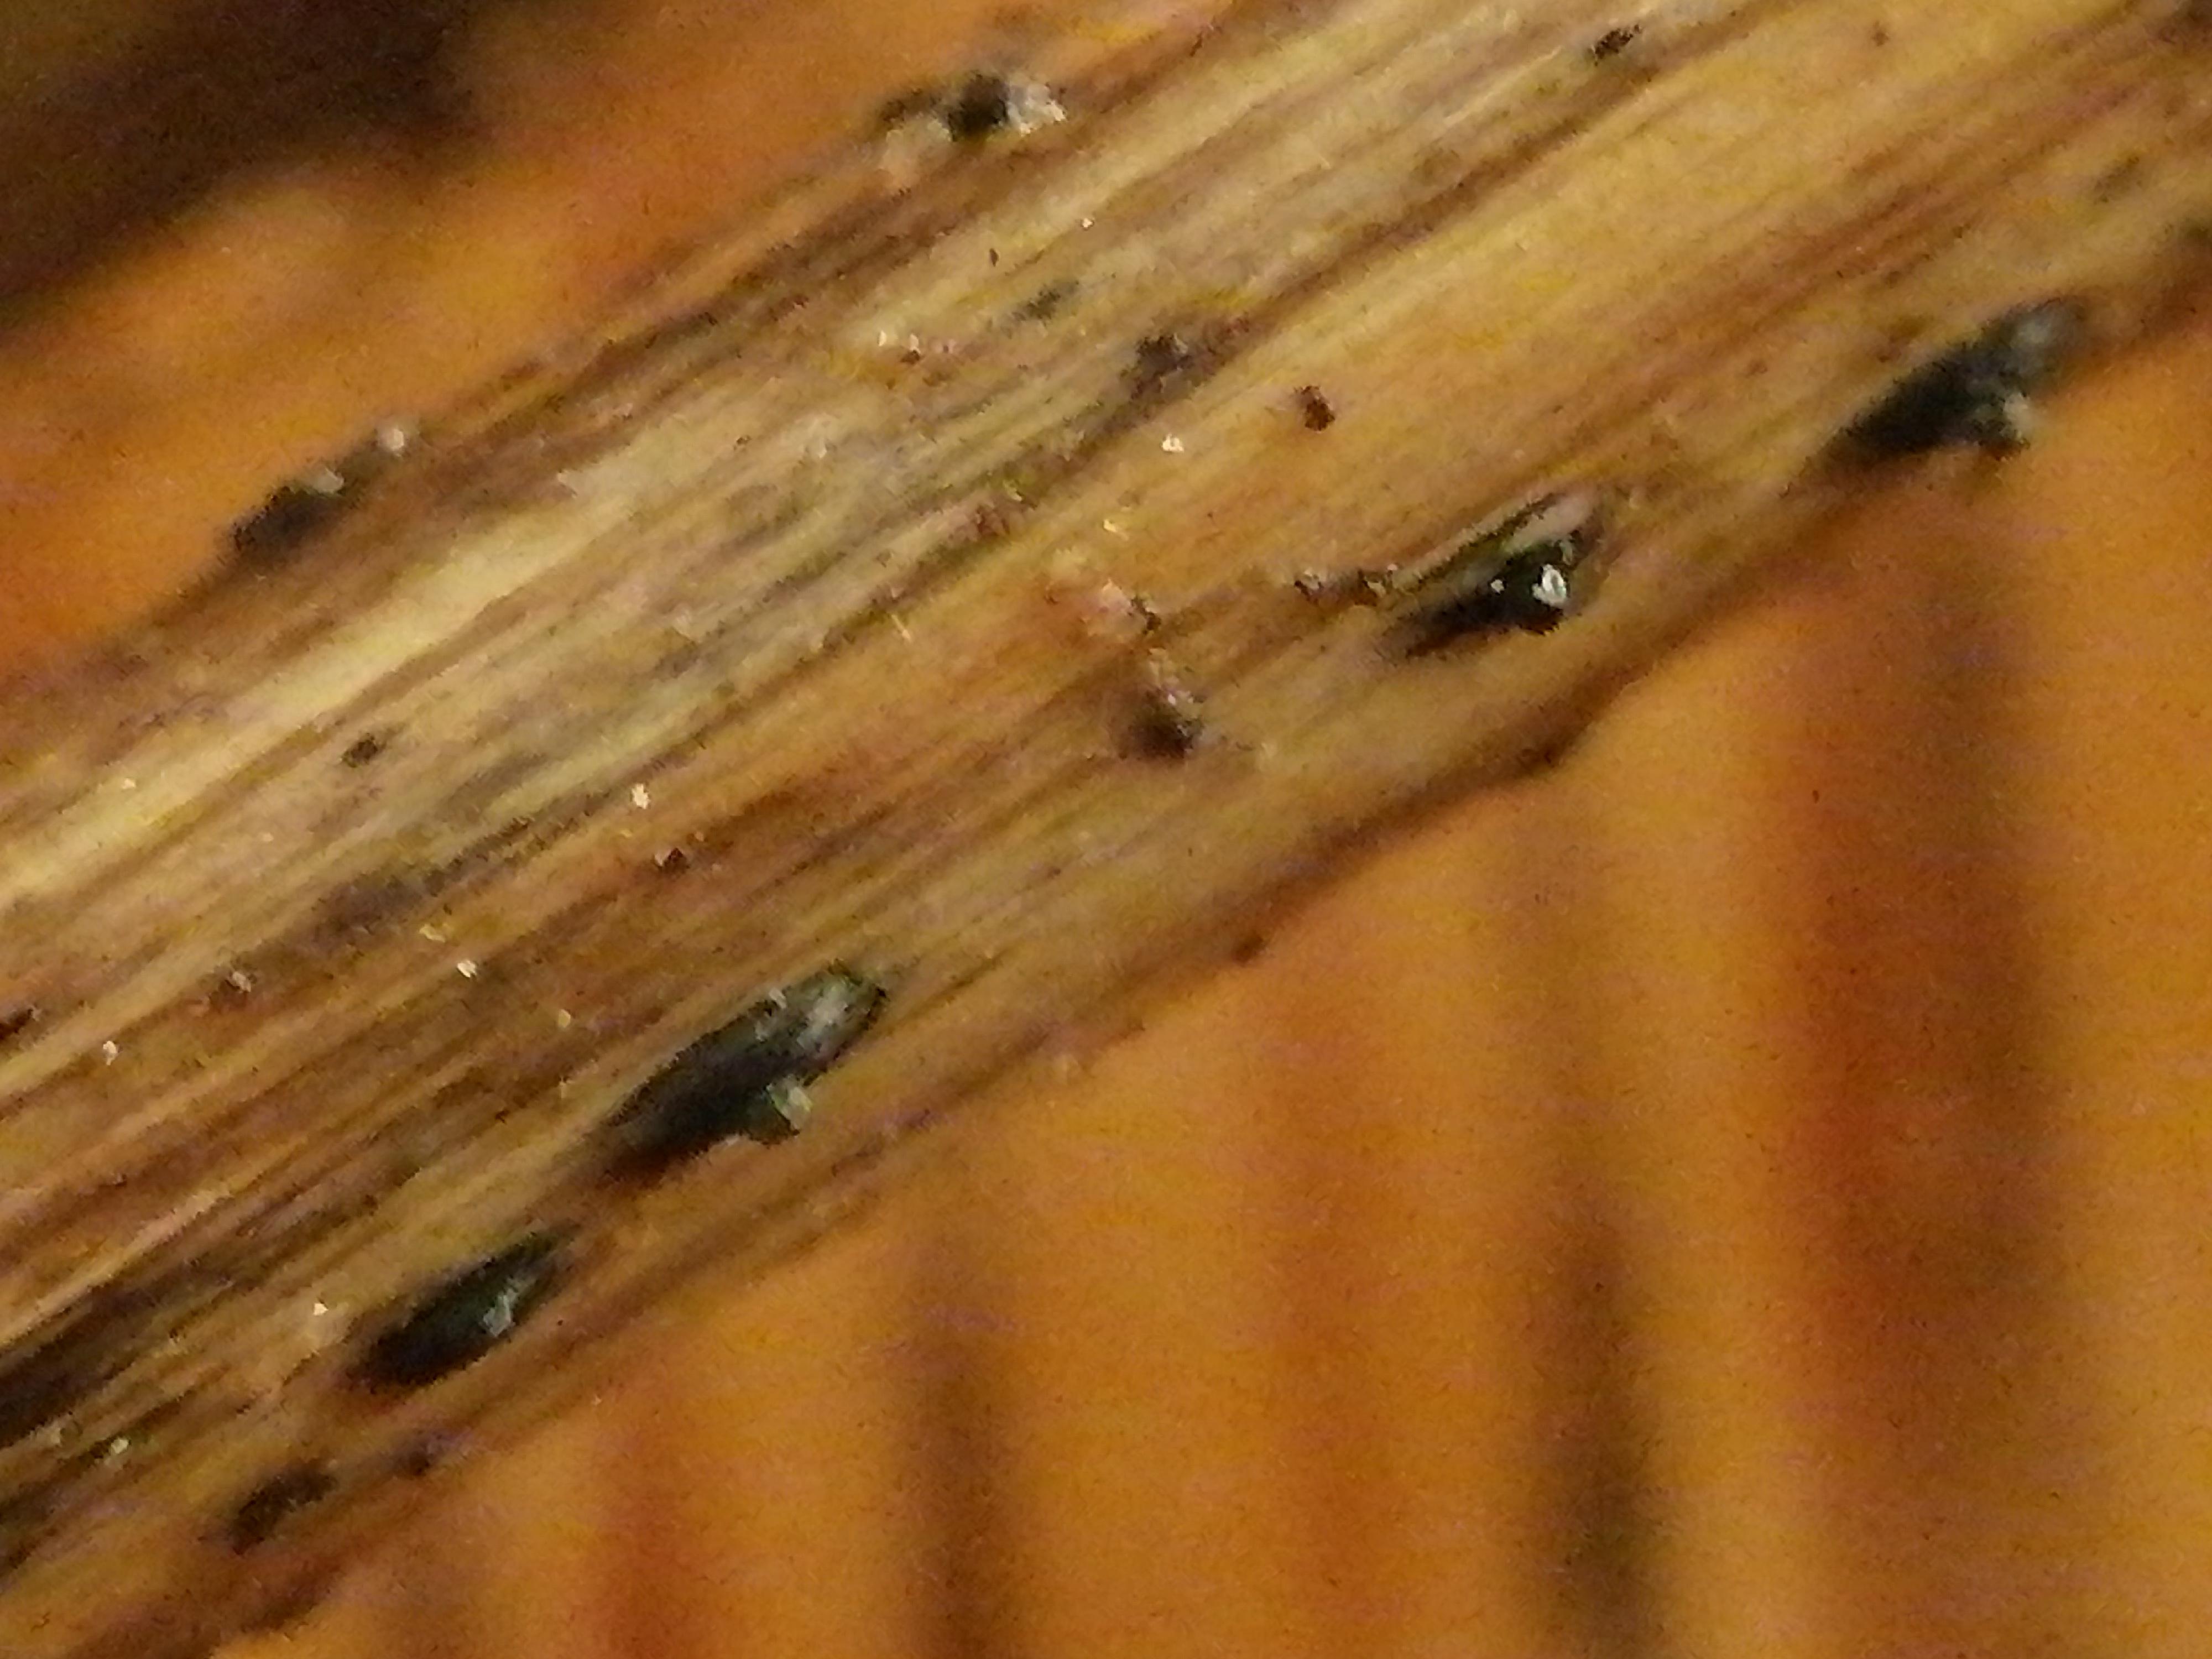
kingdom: Fungi
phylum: Ascomycota
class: Dothideomycetes
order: Pleosporales
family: Lophiostomataceae
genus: Lophiostoma
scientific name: Lophiostoma
